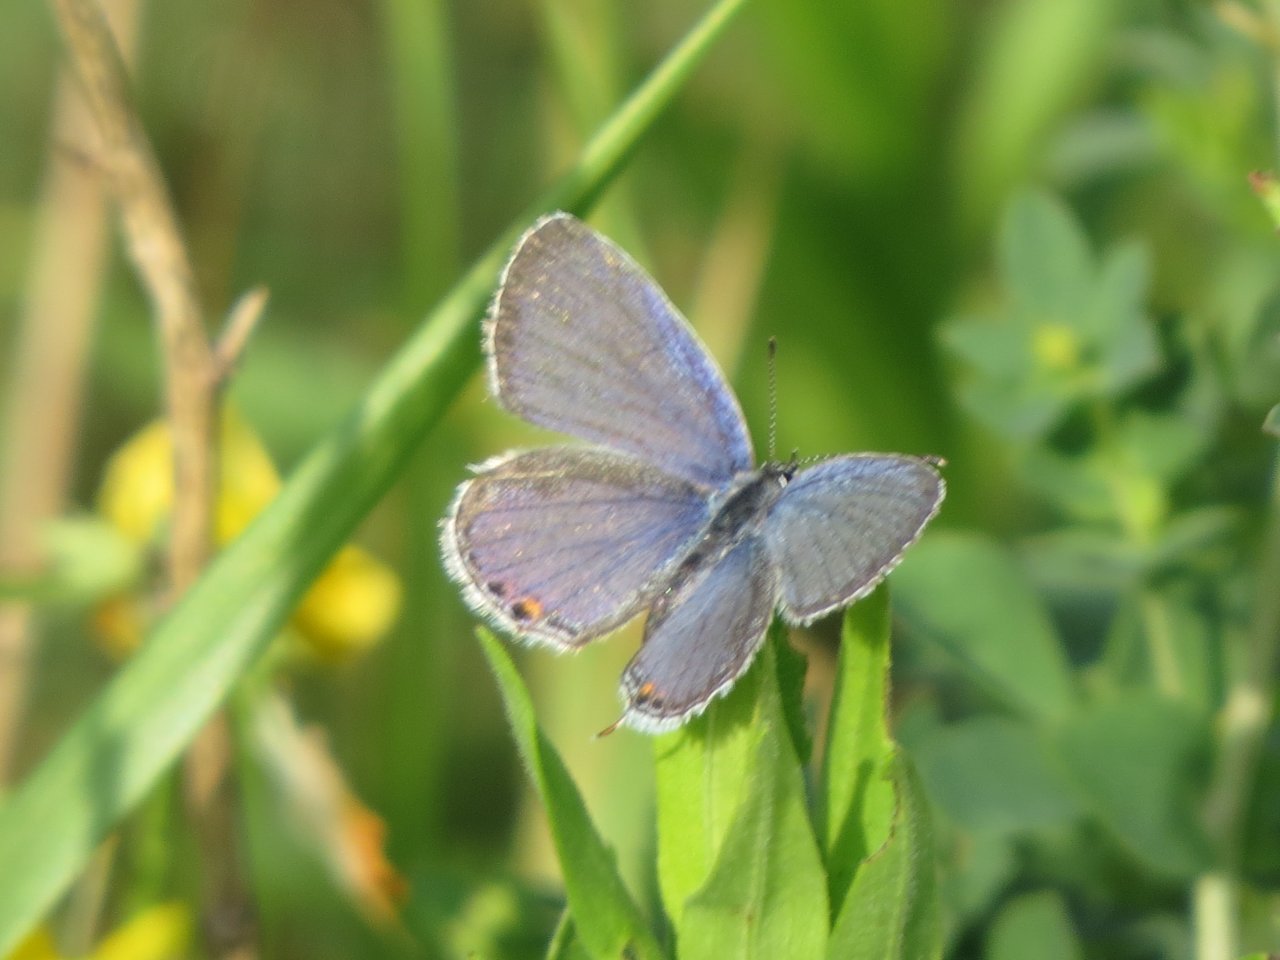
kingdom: Animalia
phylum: Arthropoda
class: Insecta
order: Lepidoptera
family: Lycaenidae
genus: Elkalyce
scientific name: Elkalyce comyntas
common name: Eastern Tailed-Blue
